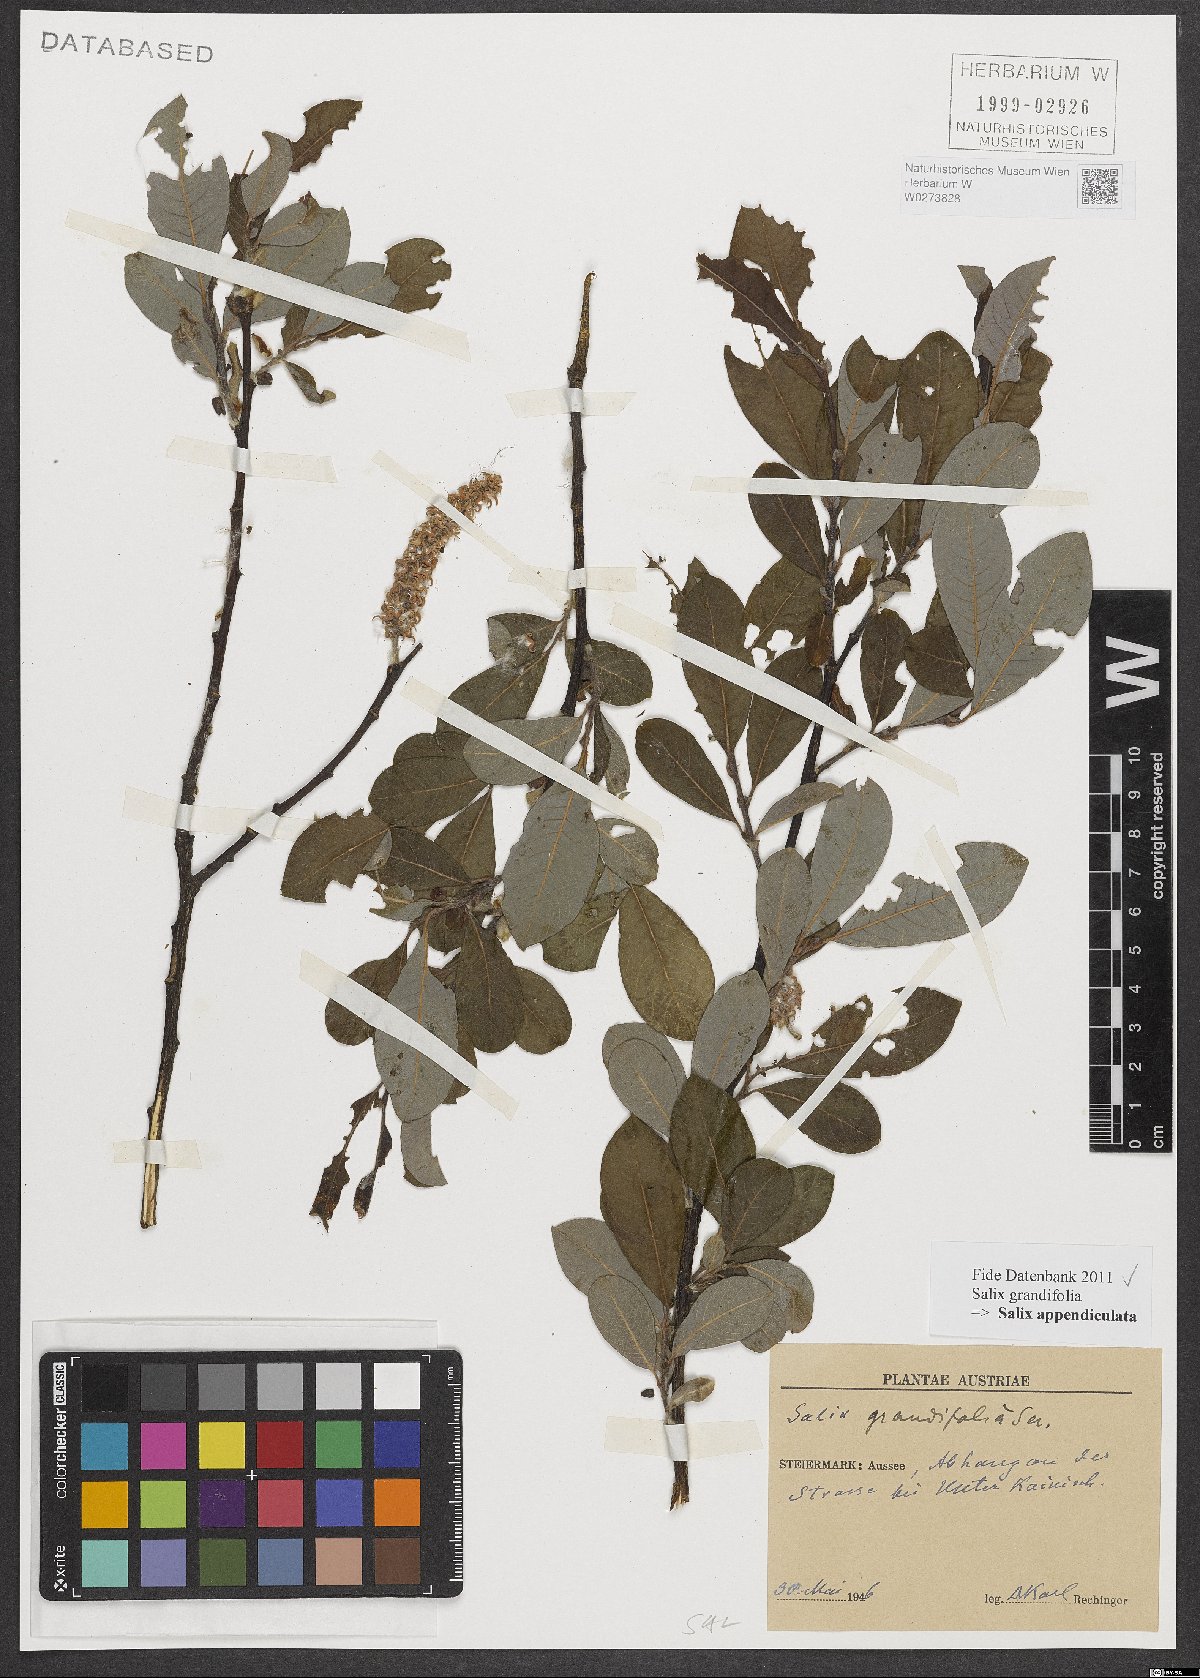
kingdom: Plantae
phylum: Tracheophyta
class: Magnoliopsida
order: Malpighiales
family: Salicaceae
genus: Salix
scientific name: Salix appendiculata
